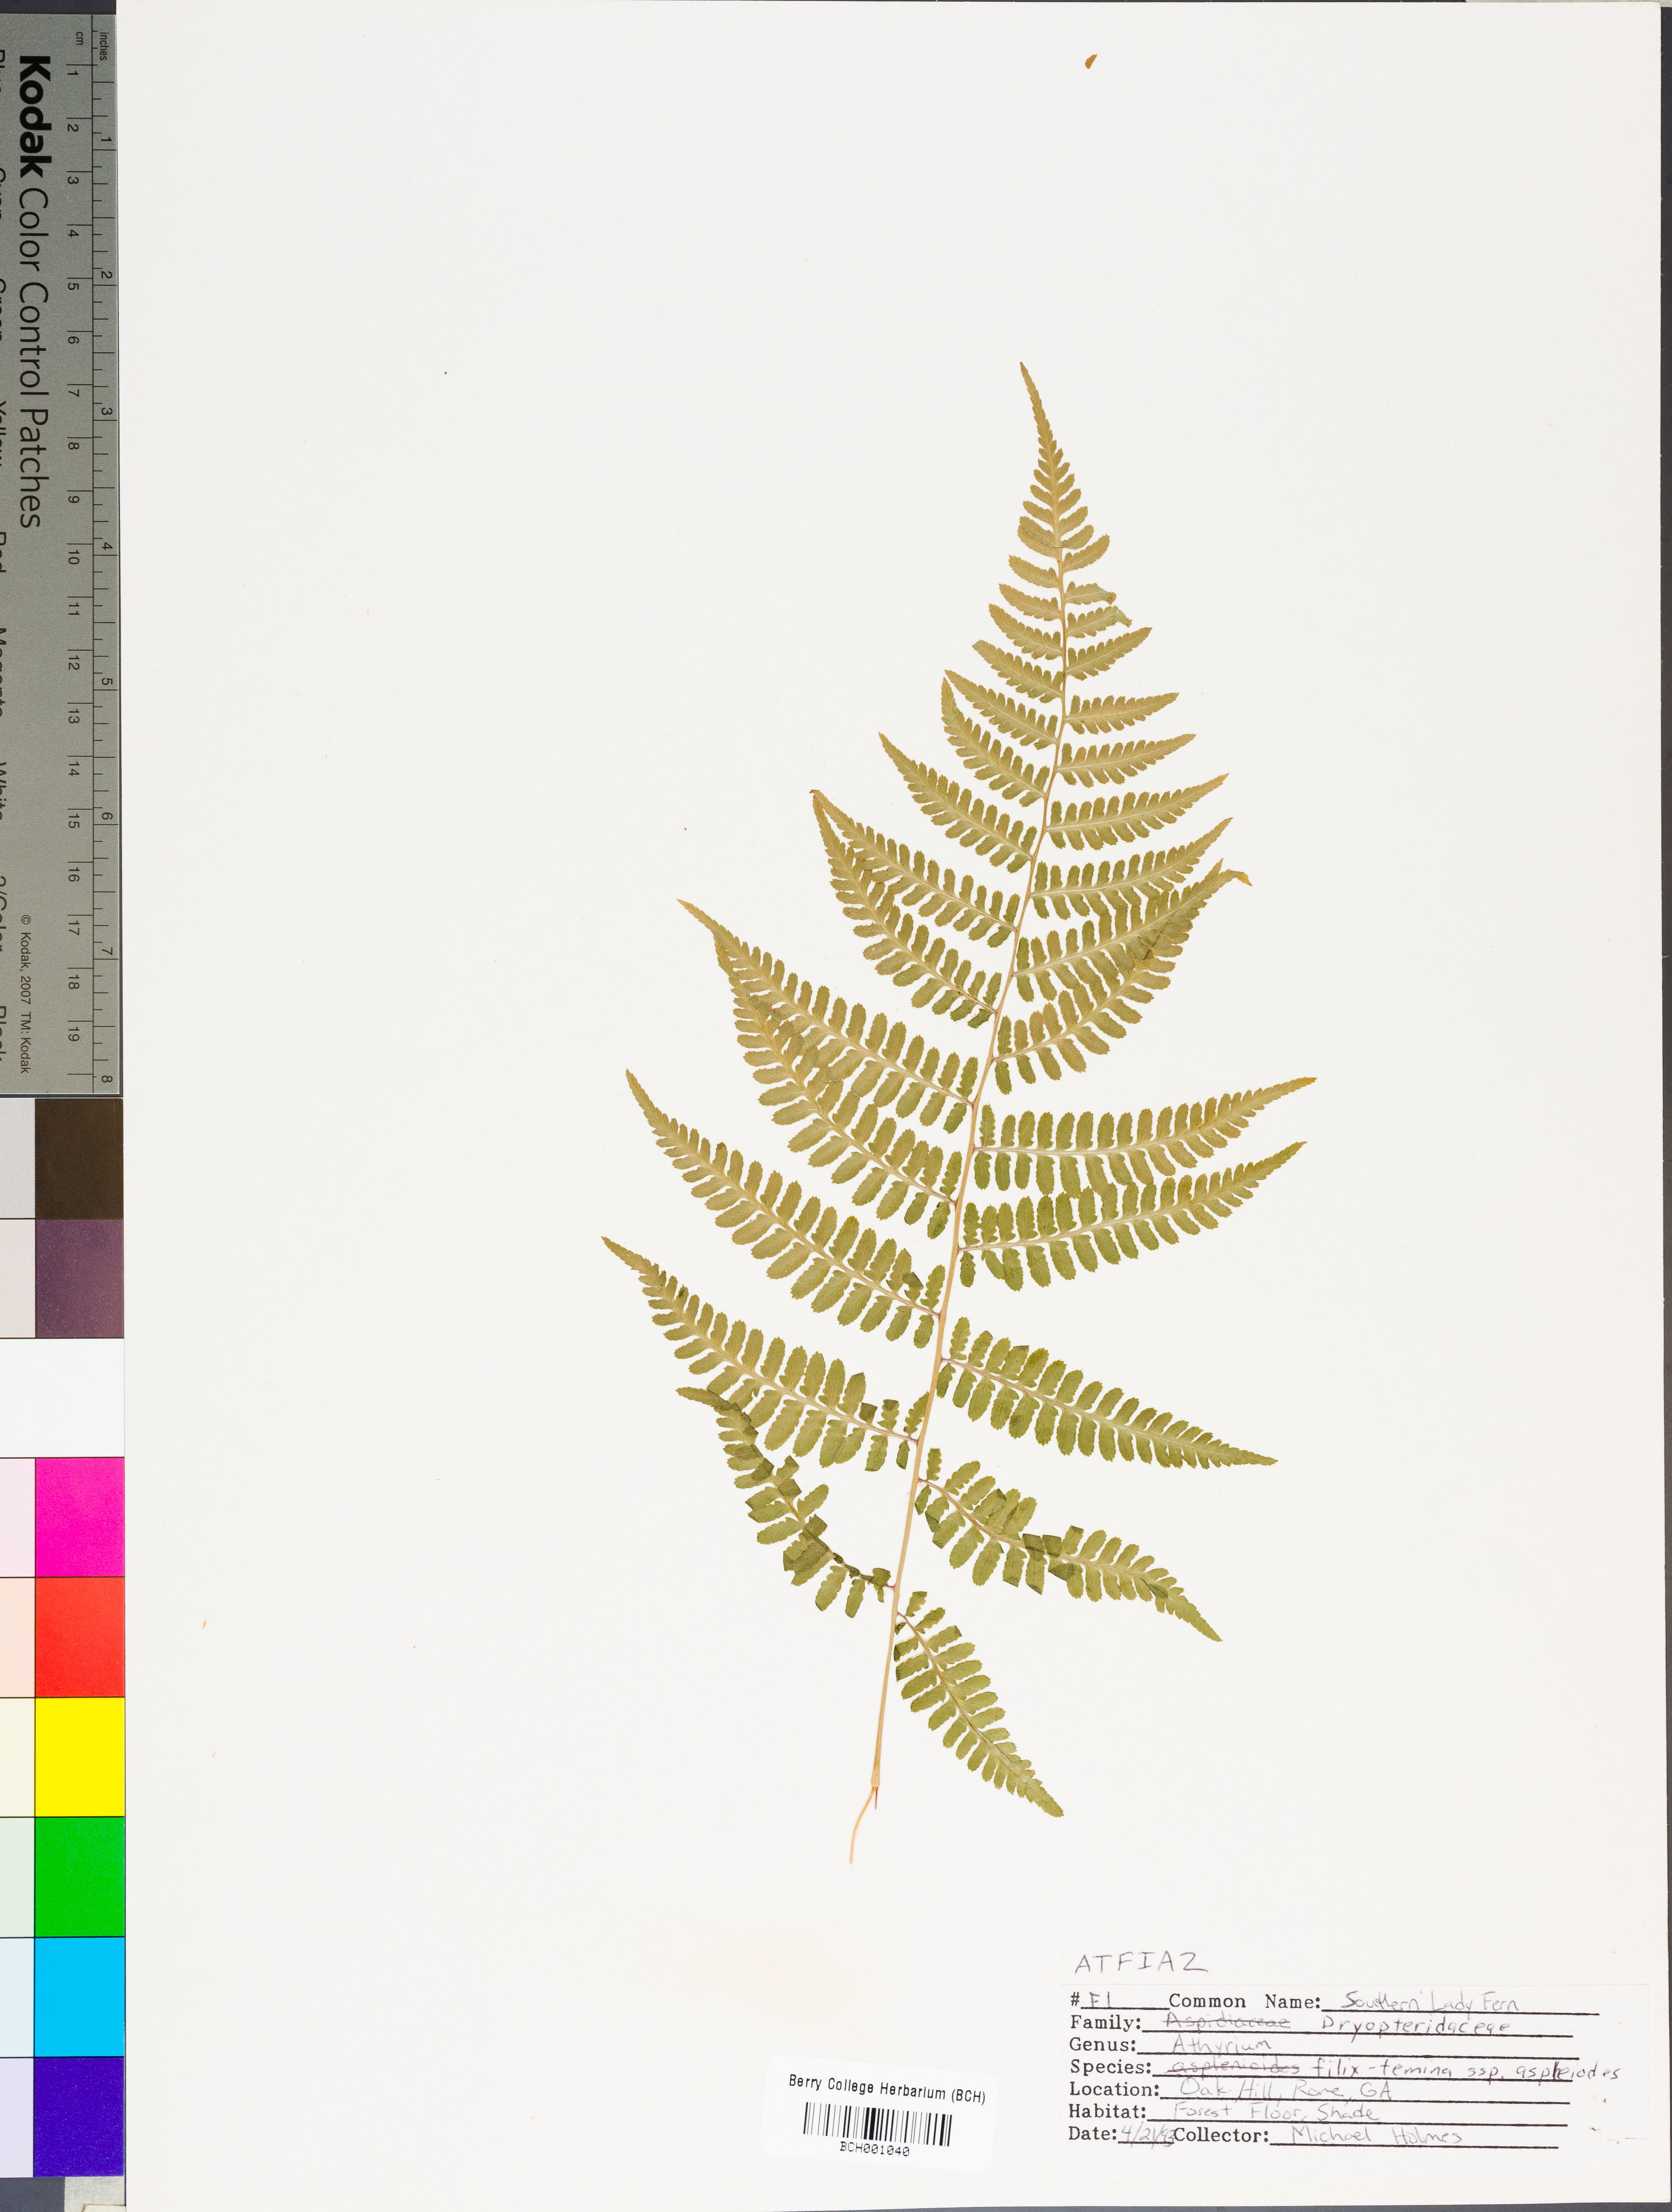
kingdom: Plantae
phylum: Tracheophyta
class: Polypodiopsida
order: Polypodiales
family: Athyriaceae
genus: Athyrium
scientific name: Athyrium asplenioides
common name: Southern lady fern
